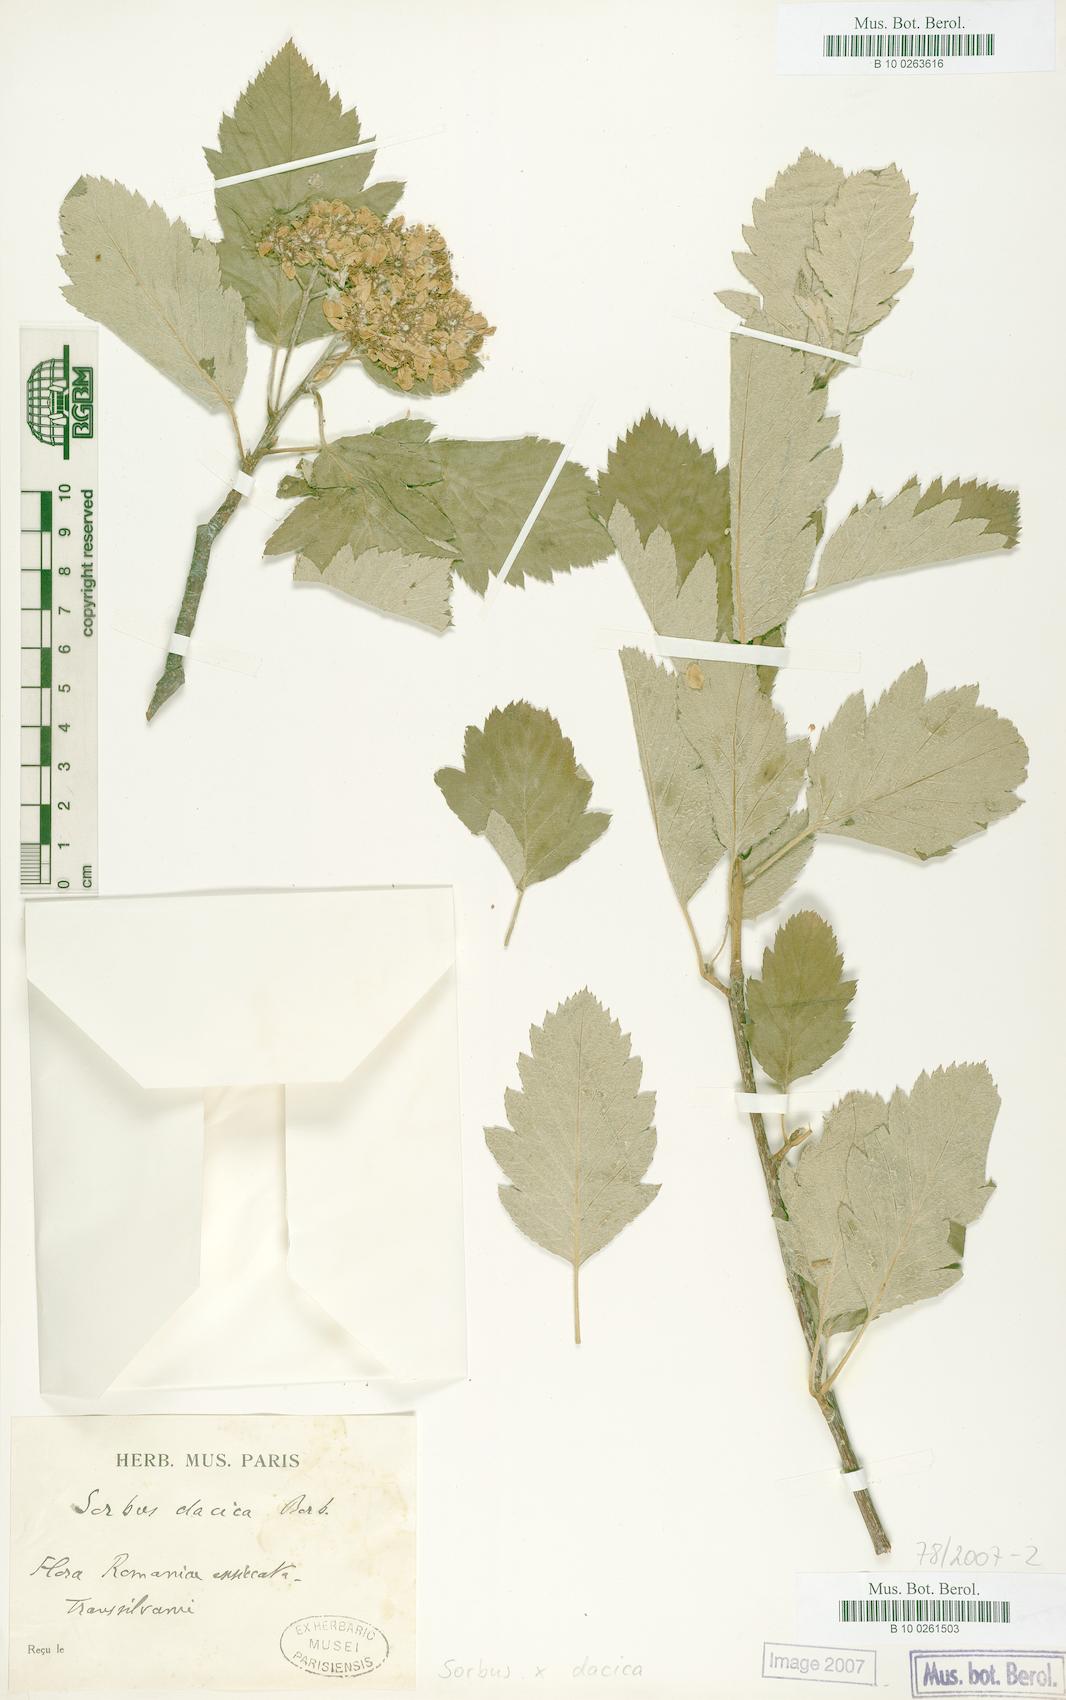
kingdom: Plantae
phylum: Tracheophyta
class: Magnoliopsida
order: Rosales
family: Rosaceae
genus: Hedlundia
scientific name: Hedlundia semipinnata
